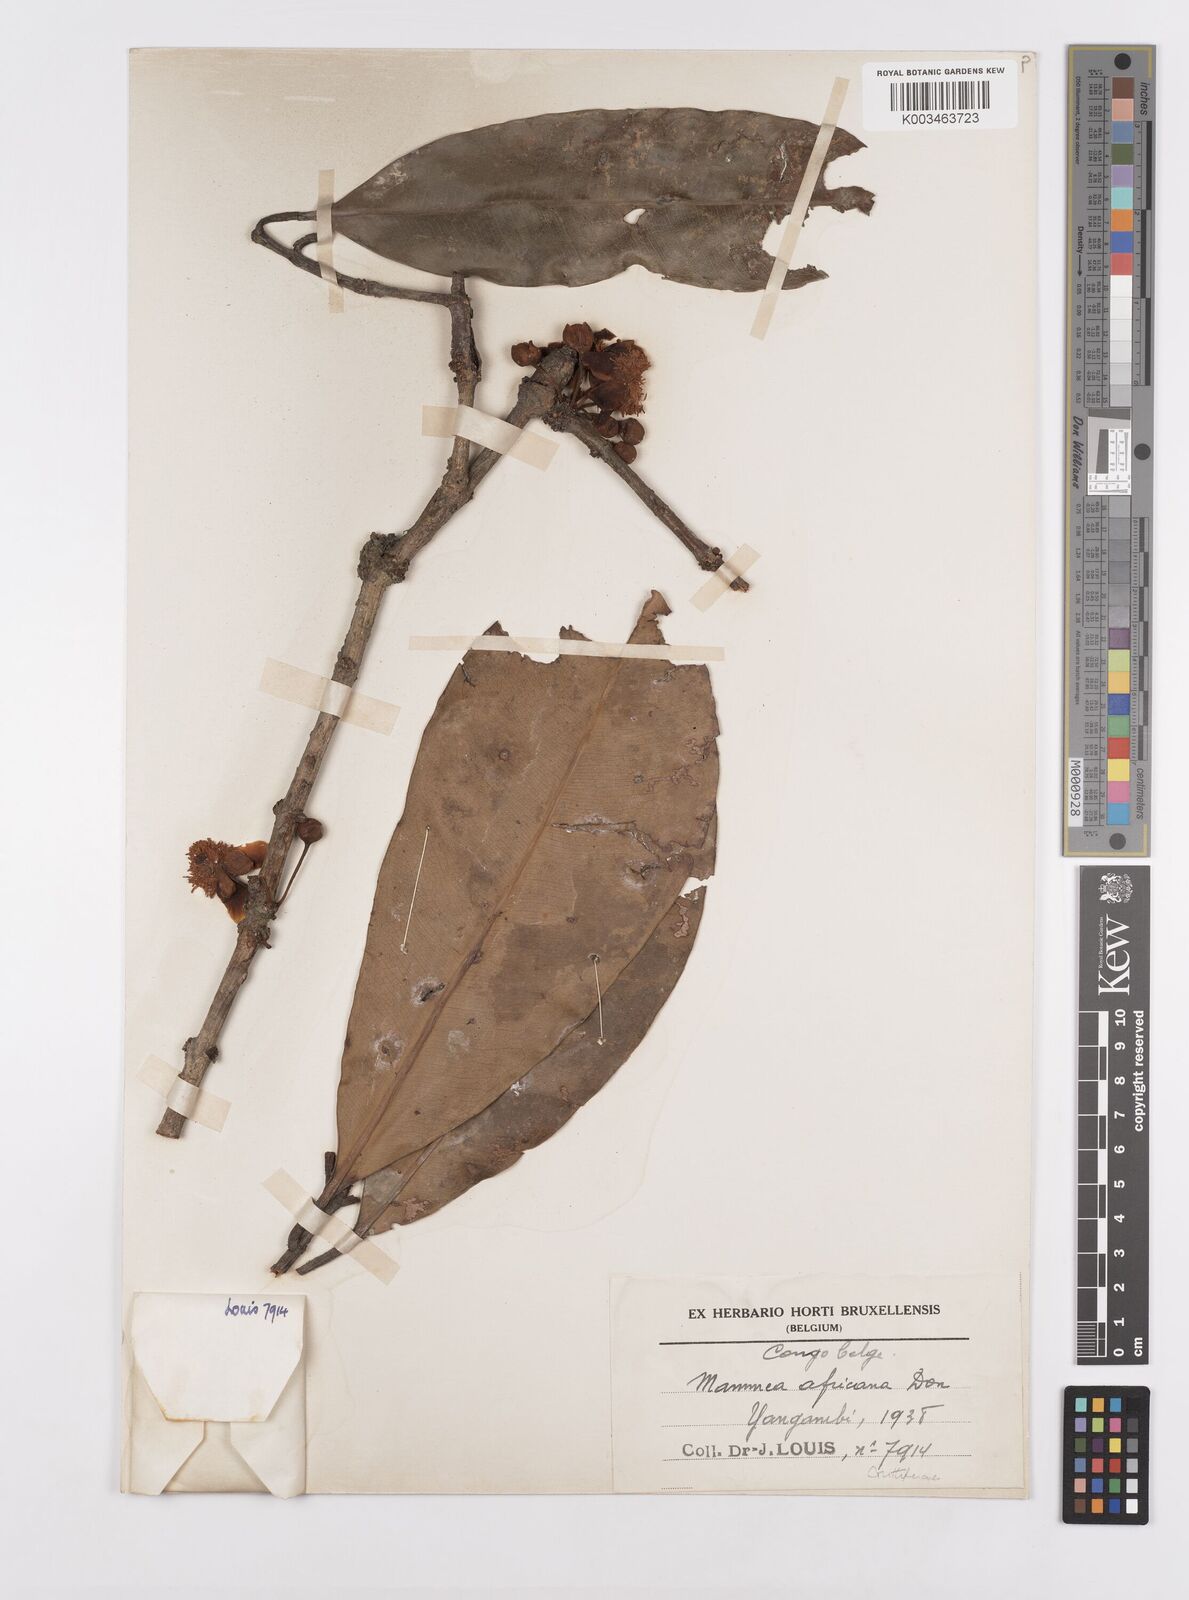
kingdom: Plantae
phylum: Tracheophyta
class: Magnoliopsida
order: Malpighiales
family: Calophyllaceae
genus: Mammea
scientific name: Mammea africana
